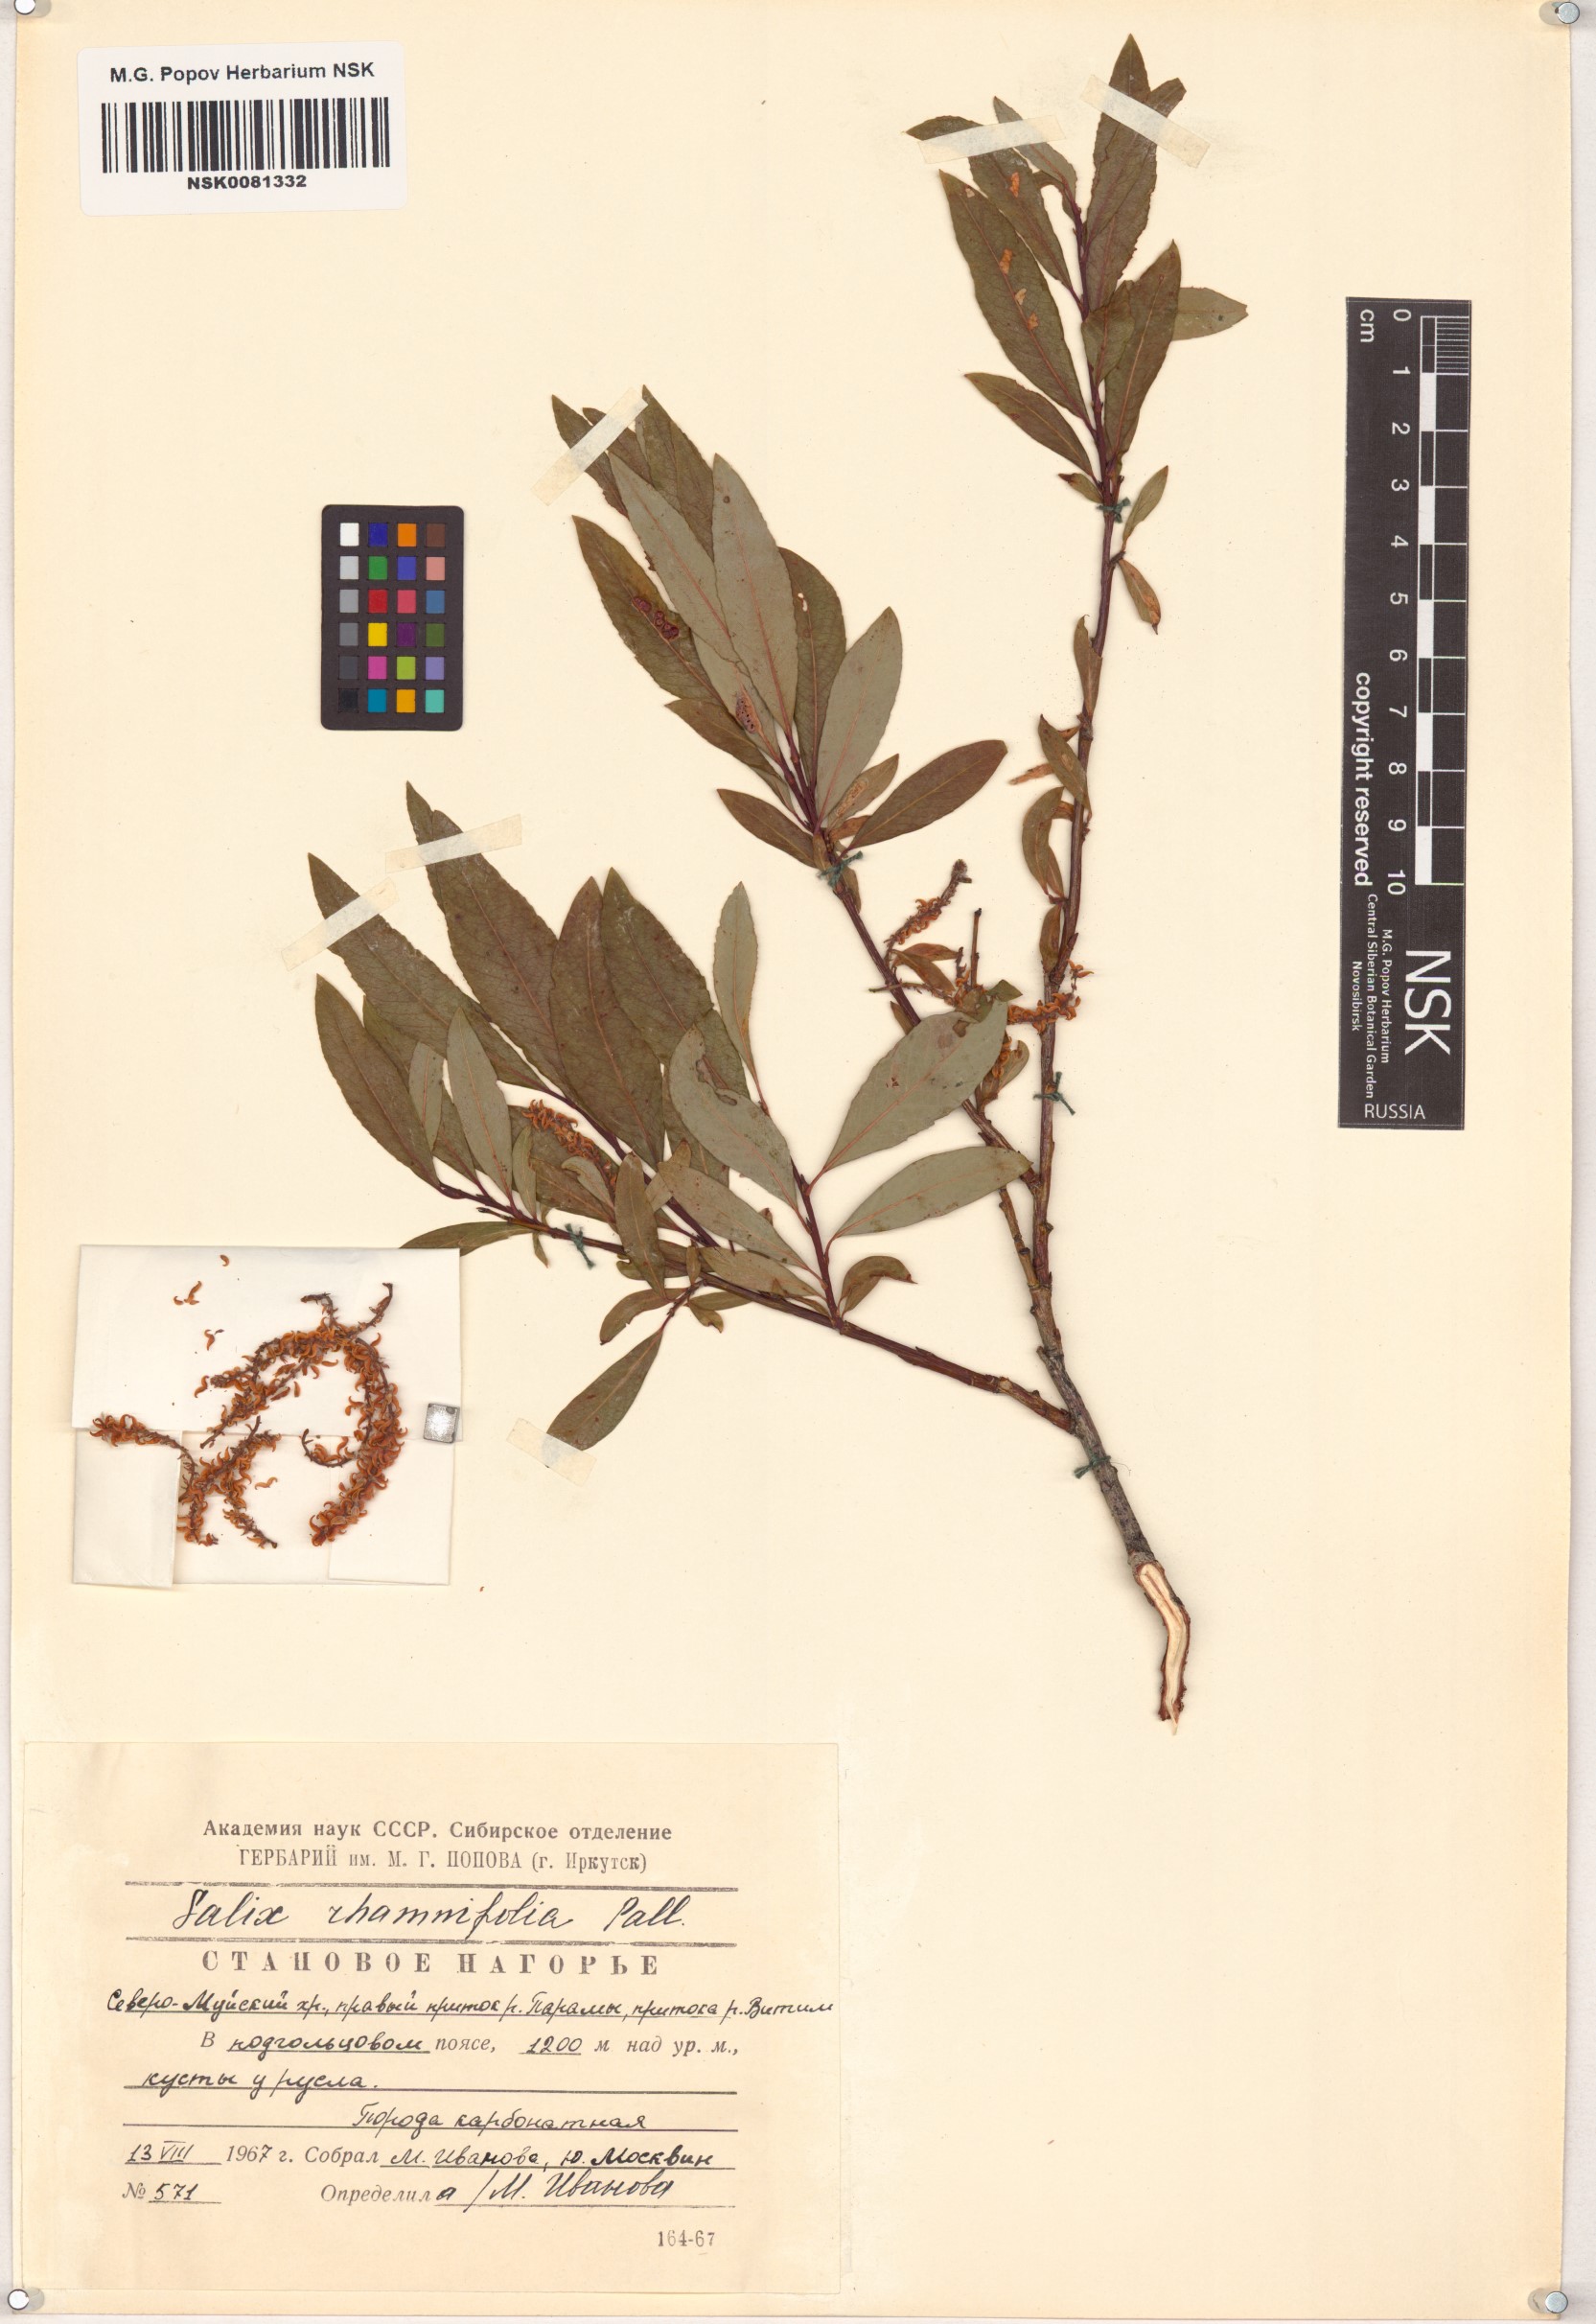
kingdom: Plantae
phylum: Tracheophyta
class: Magnoliopsida
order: Malpighiales
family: Salicaceae
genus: Salix
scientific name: Salix rhamnifolia
